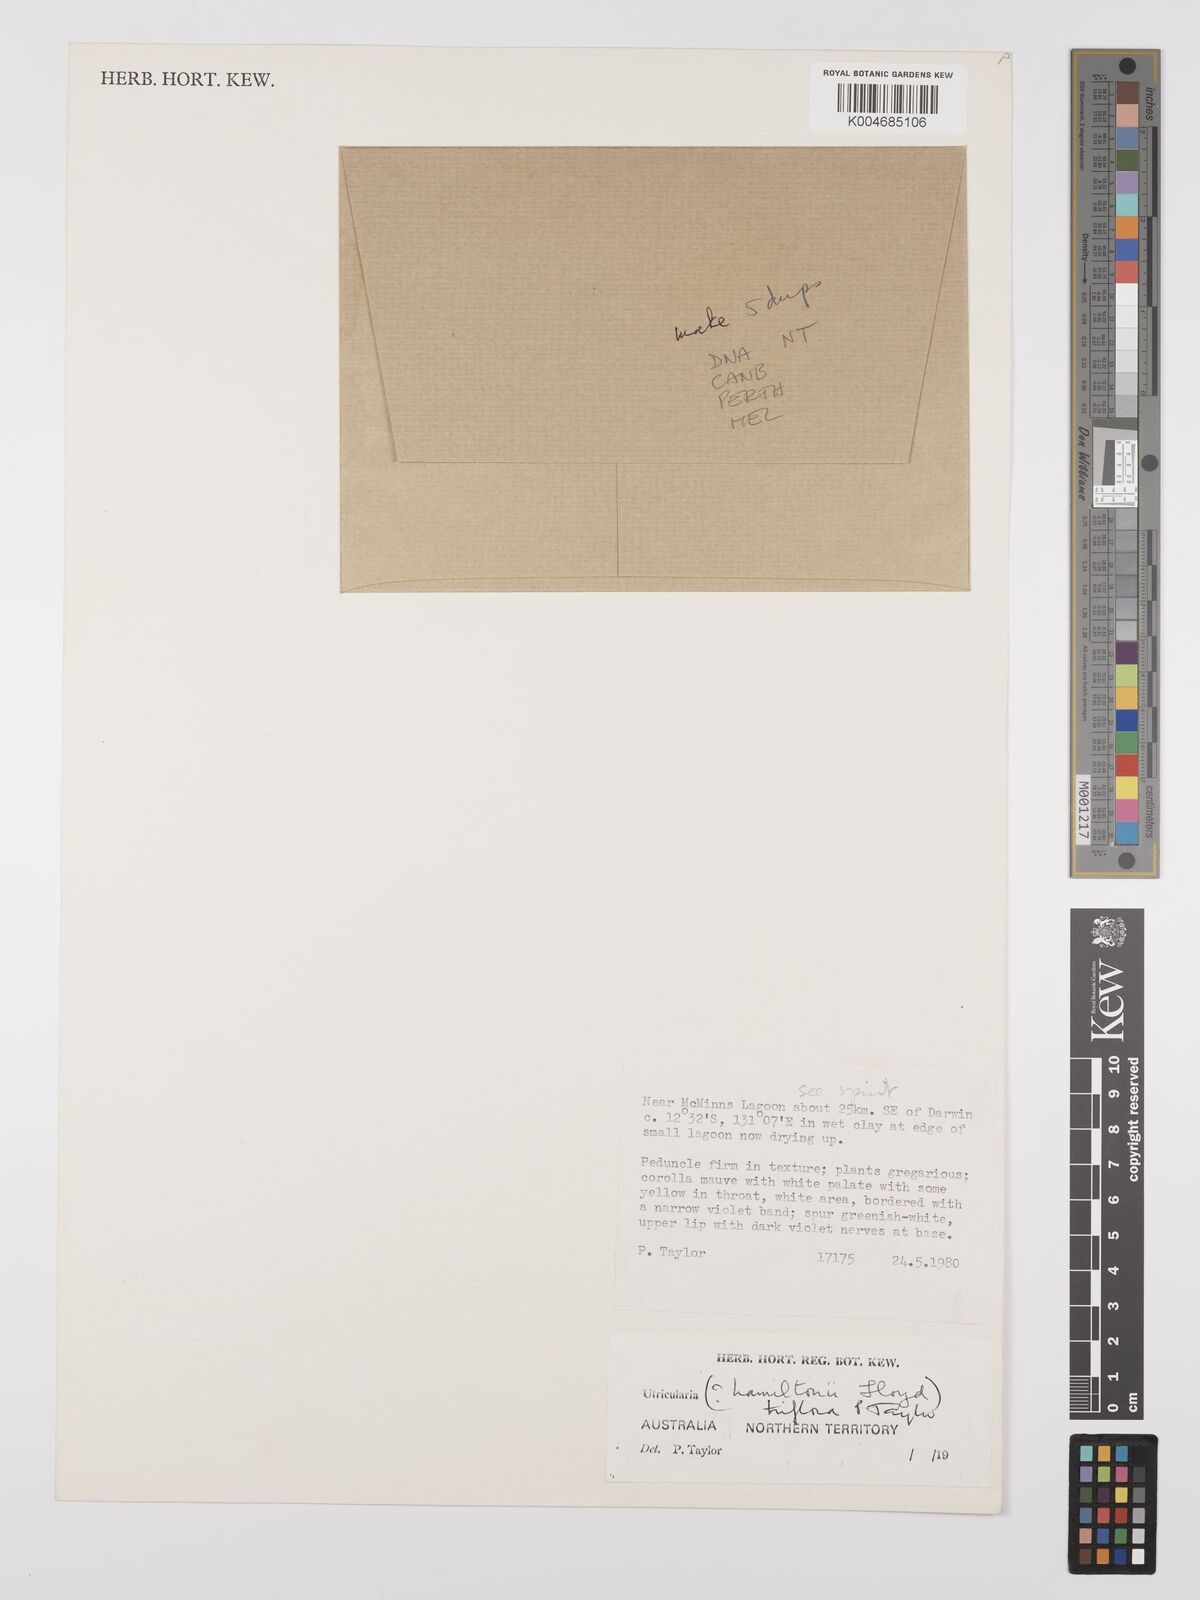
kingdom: Plantae
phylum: Tracheophyta
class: Magnoliopsida
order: Lamiales
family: Lentibulariaceae
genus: Utricularia
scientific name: Utricularia triflora
